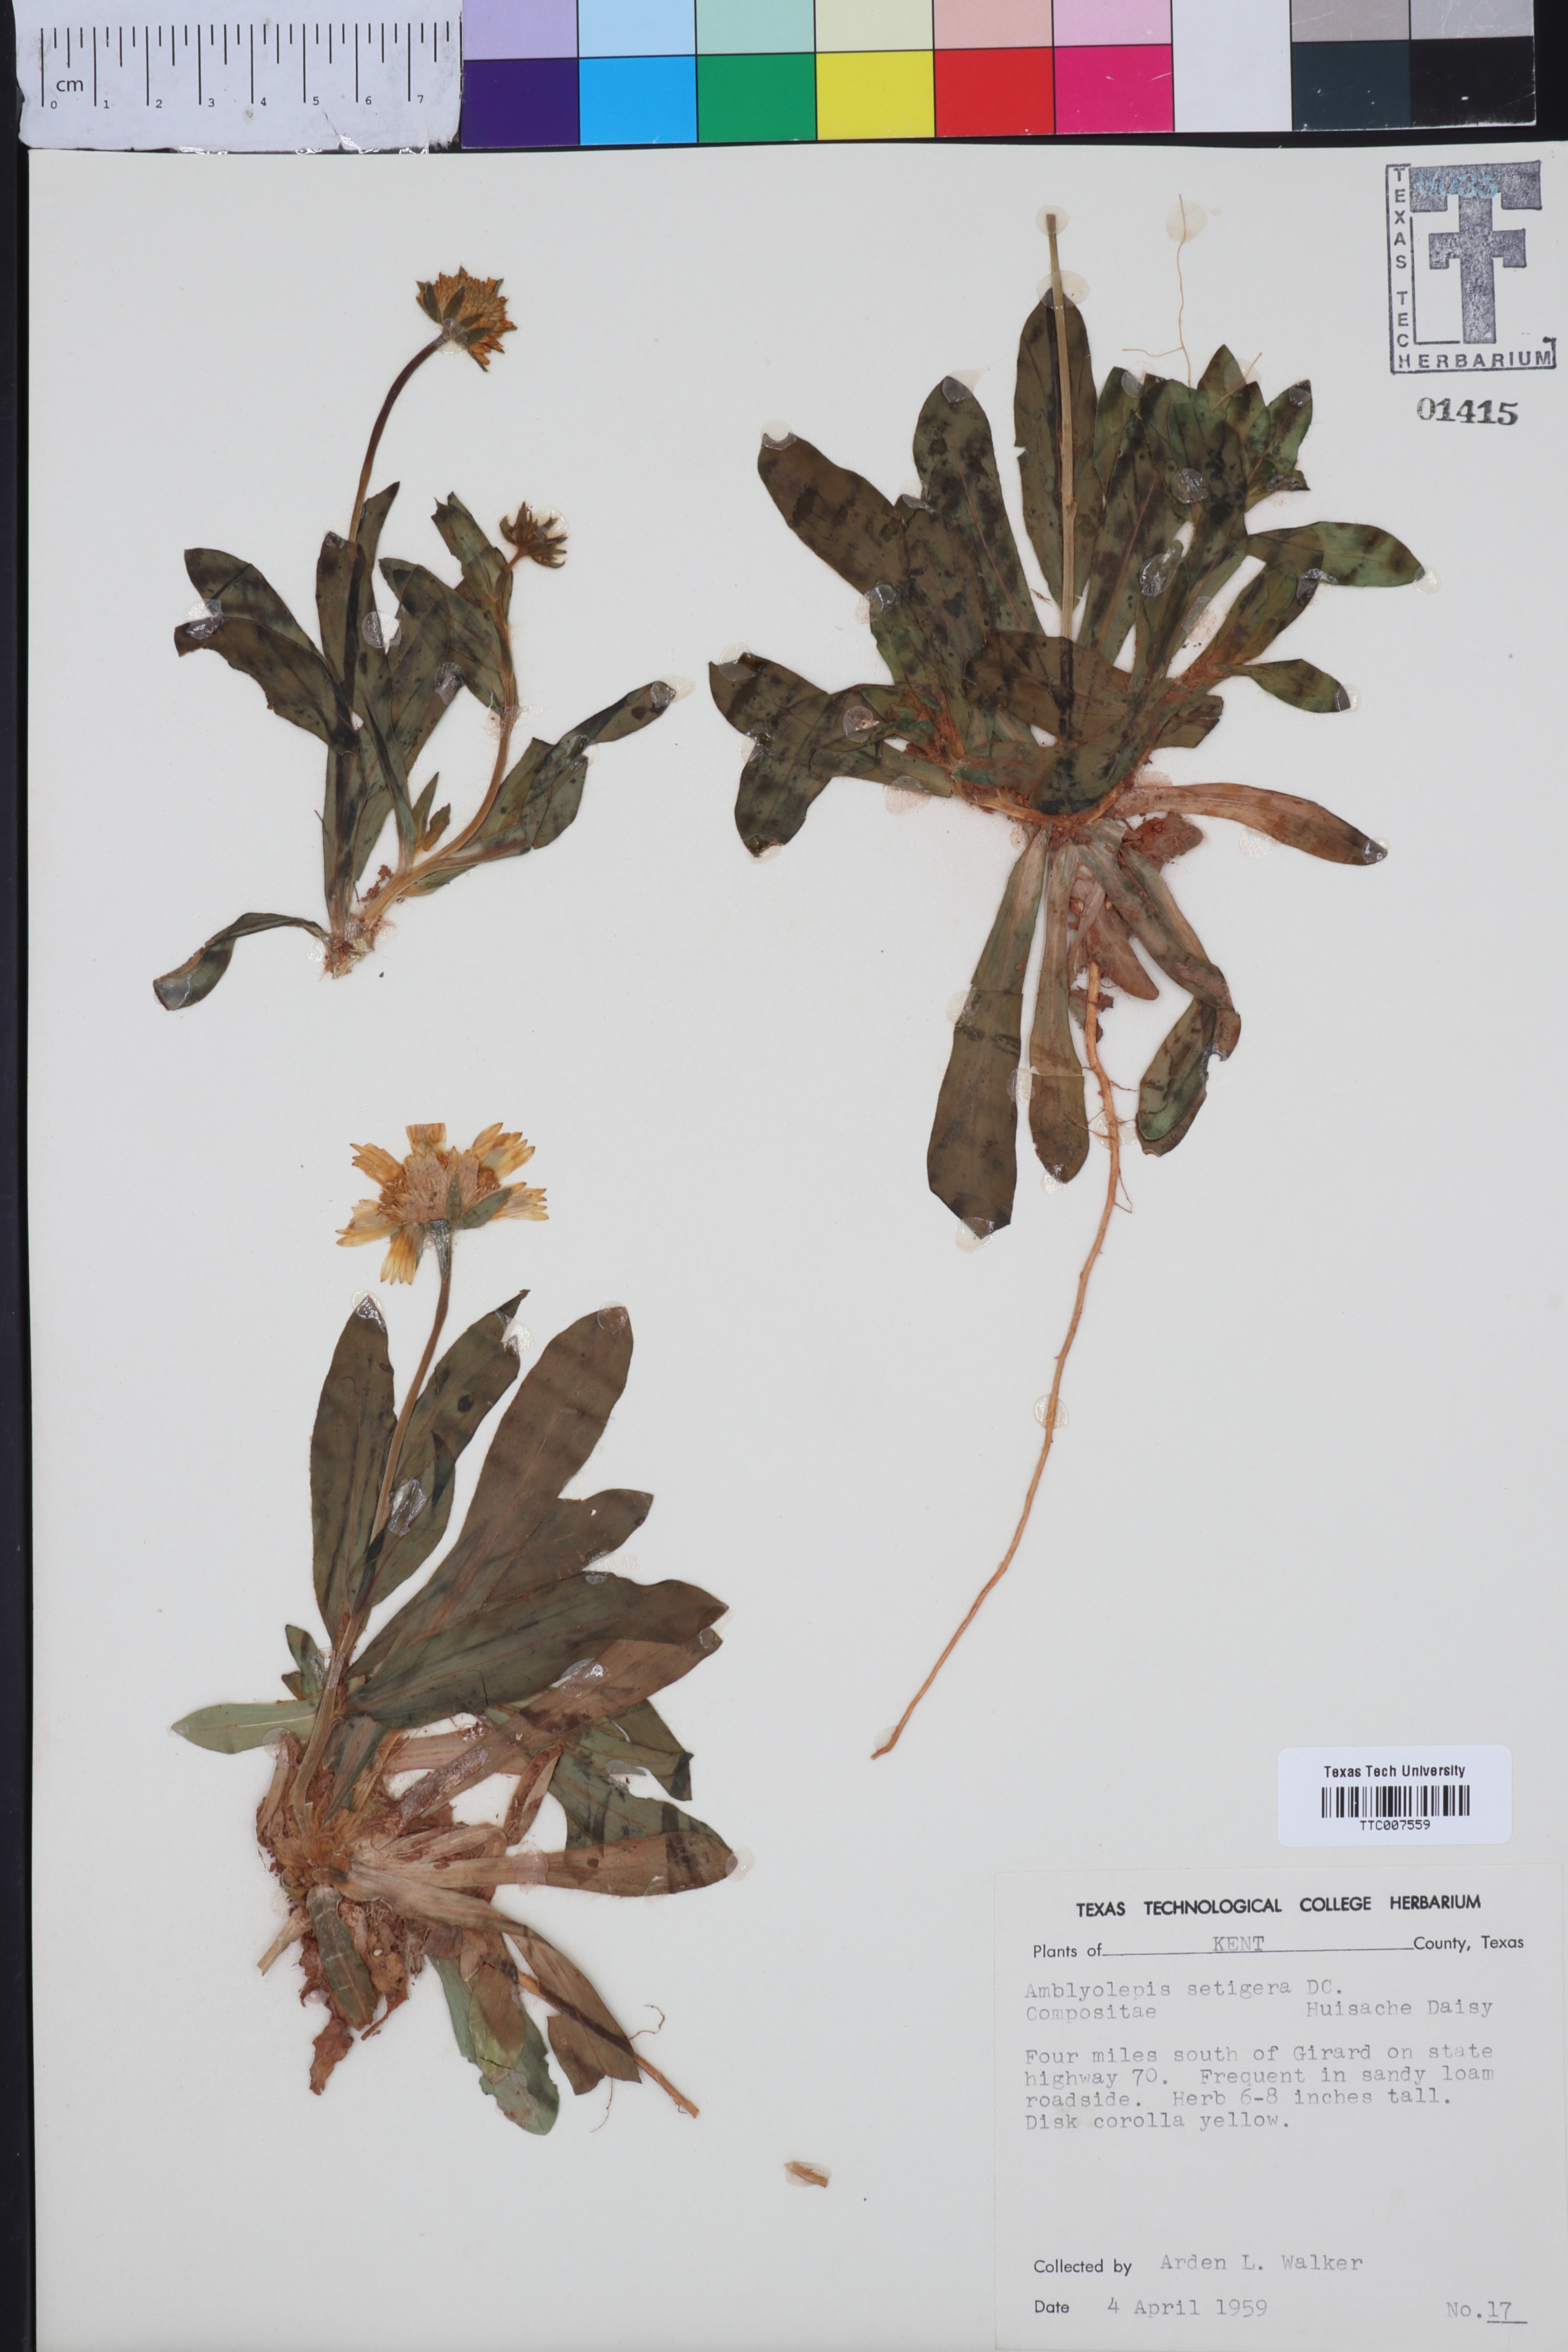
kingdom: Plantae
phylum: Tracheophyta
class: Magnoliopsida
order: Asterales
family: Asteraceae
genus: Amblyolepis
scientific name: Amblyolepis setigera
